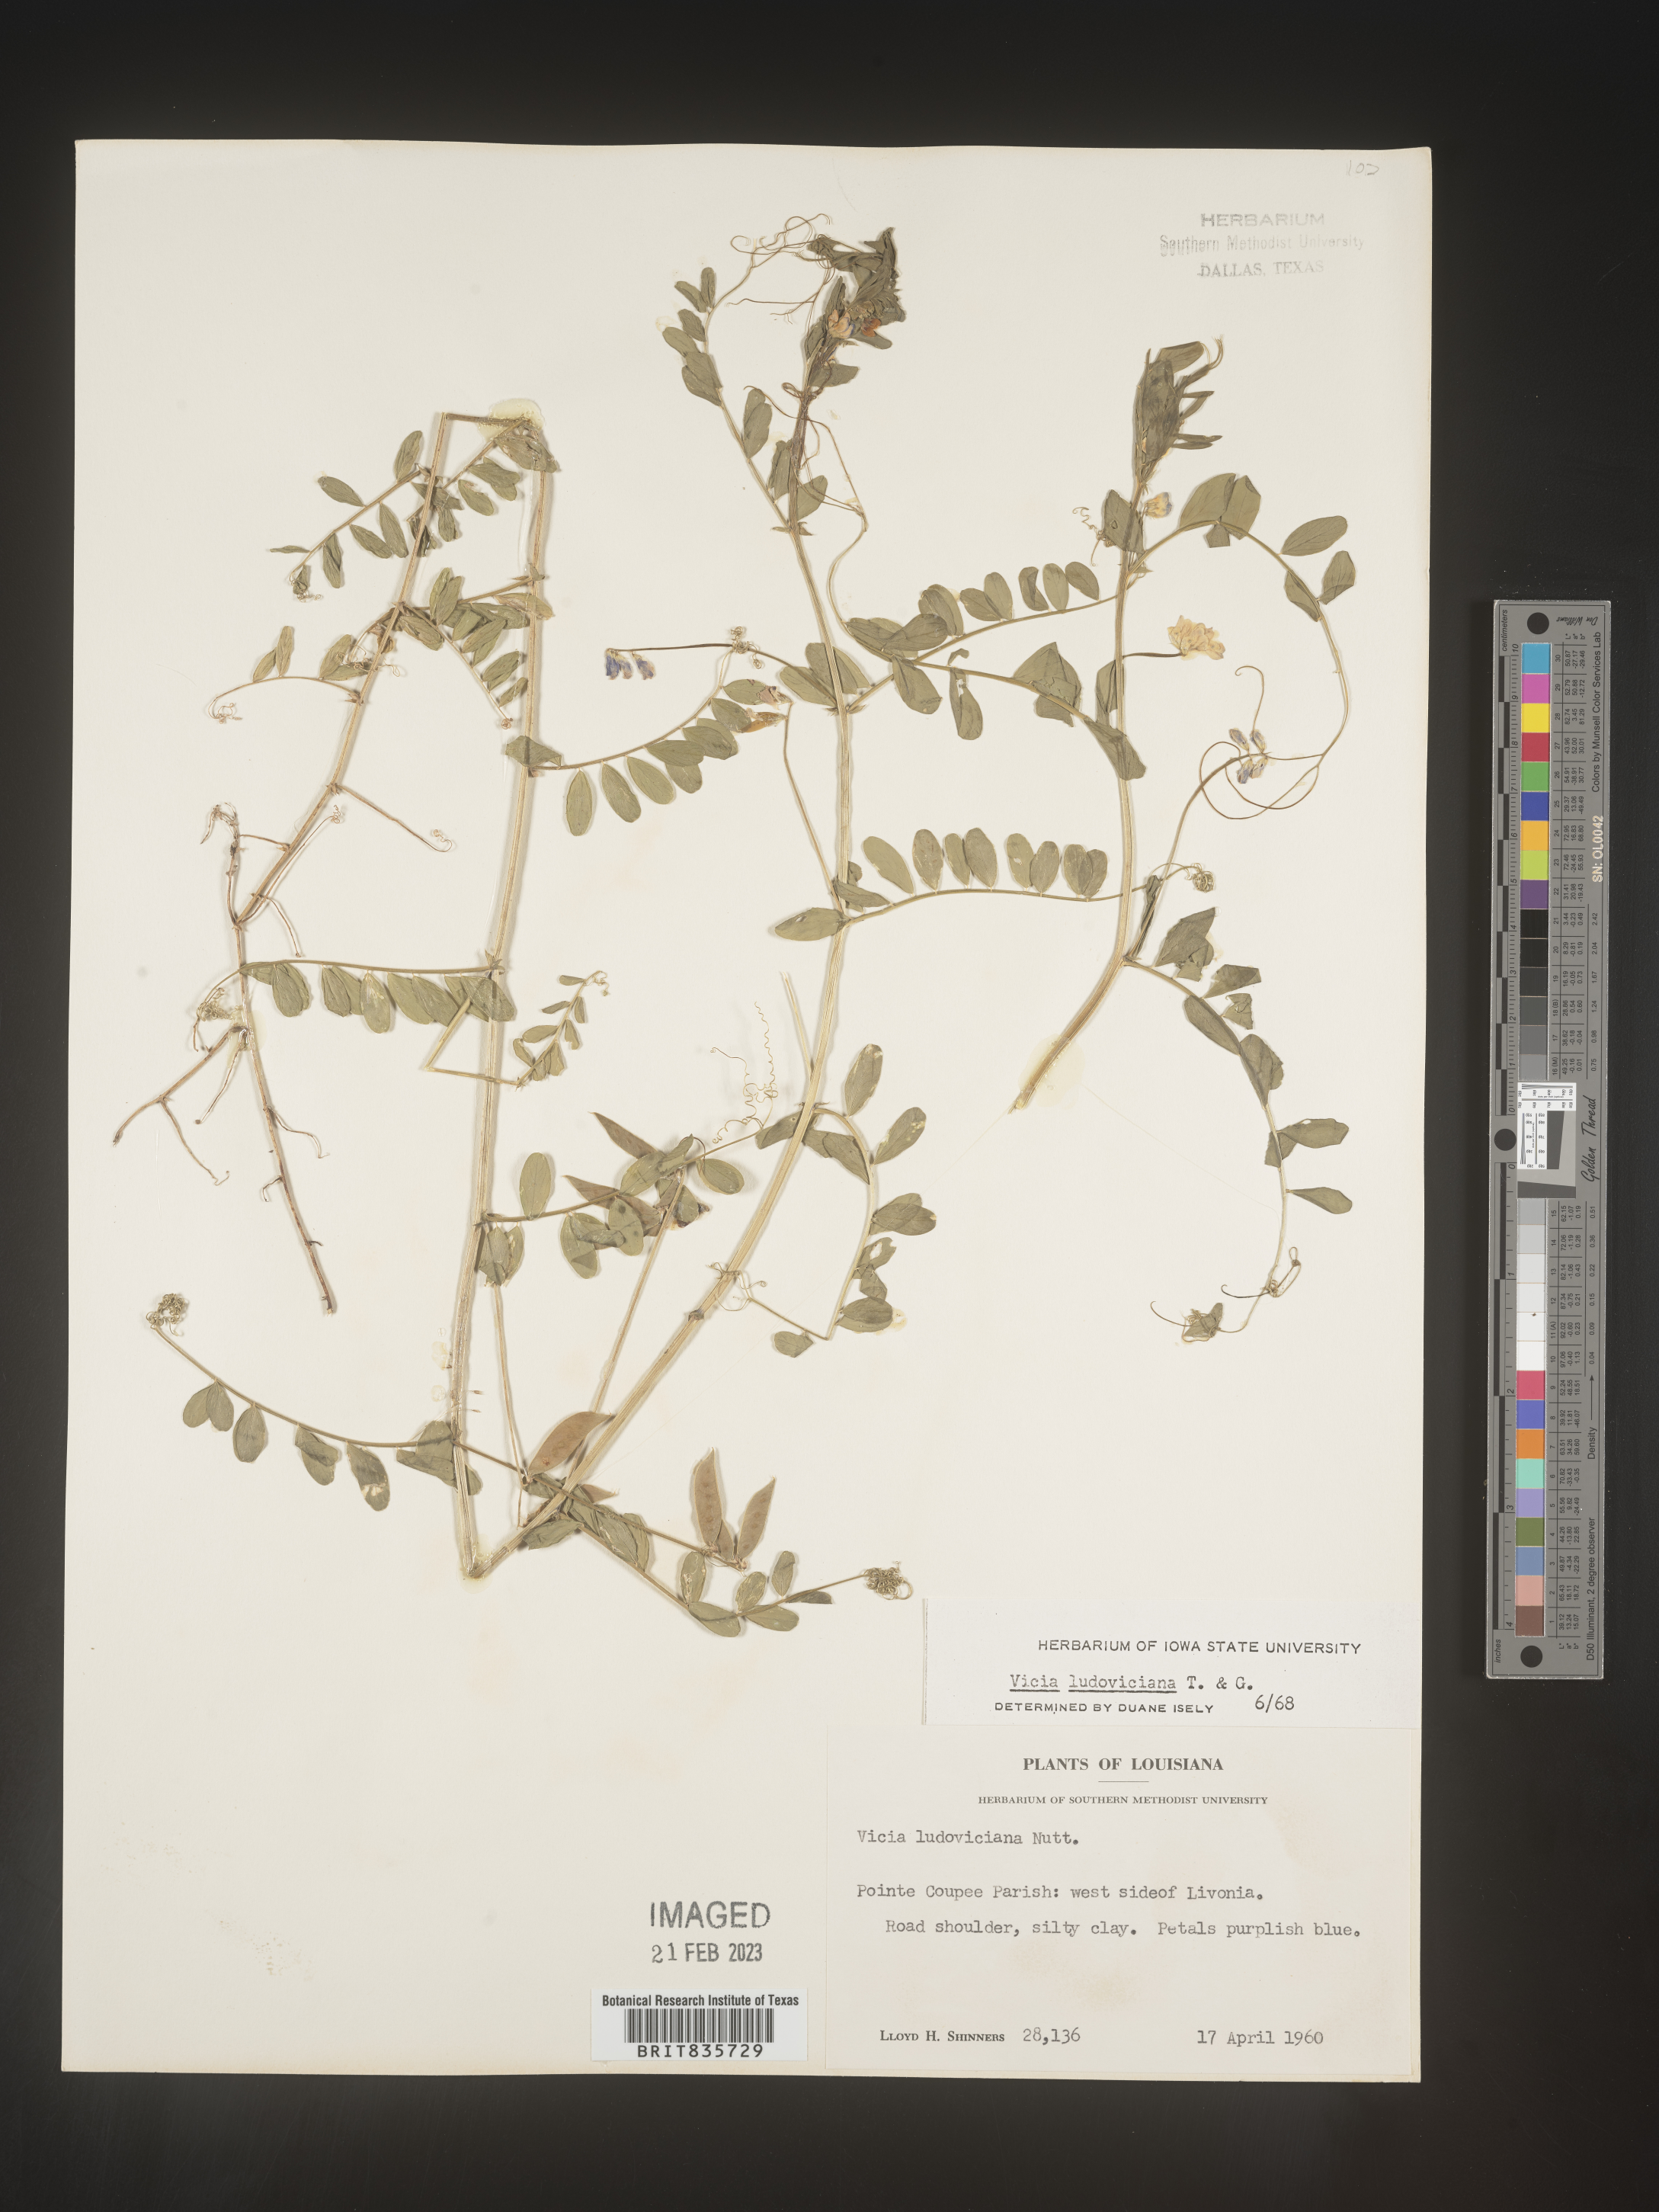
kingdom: Plantae
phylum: Tracheophyta
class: Magnoliopsida
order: Fabales
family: Fabaceae
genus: Vicia
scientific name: Vicia ludoviciana
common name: Louisiana vetch
